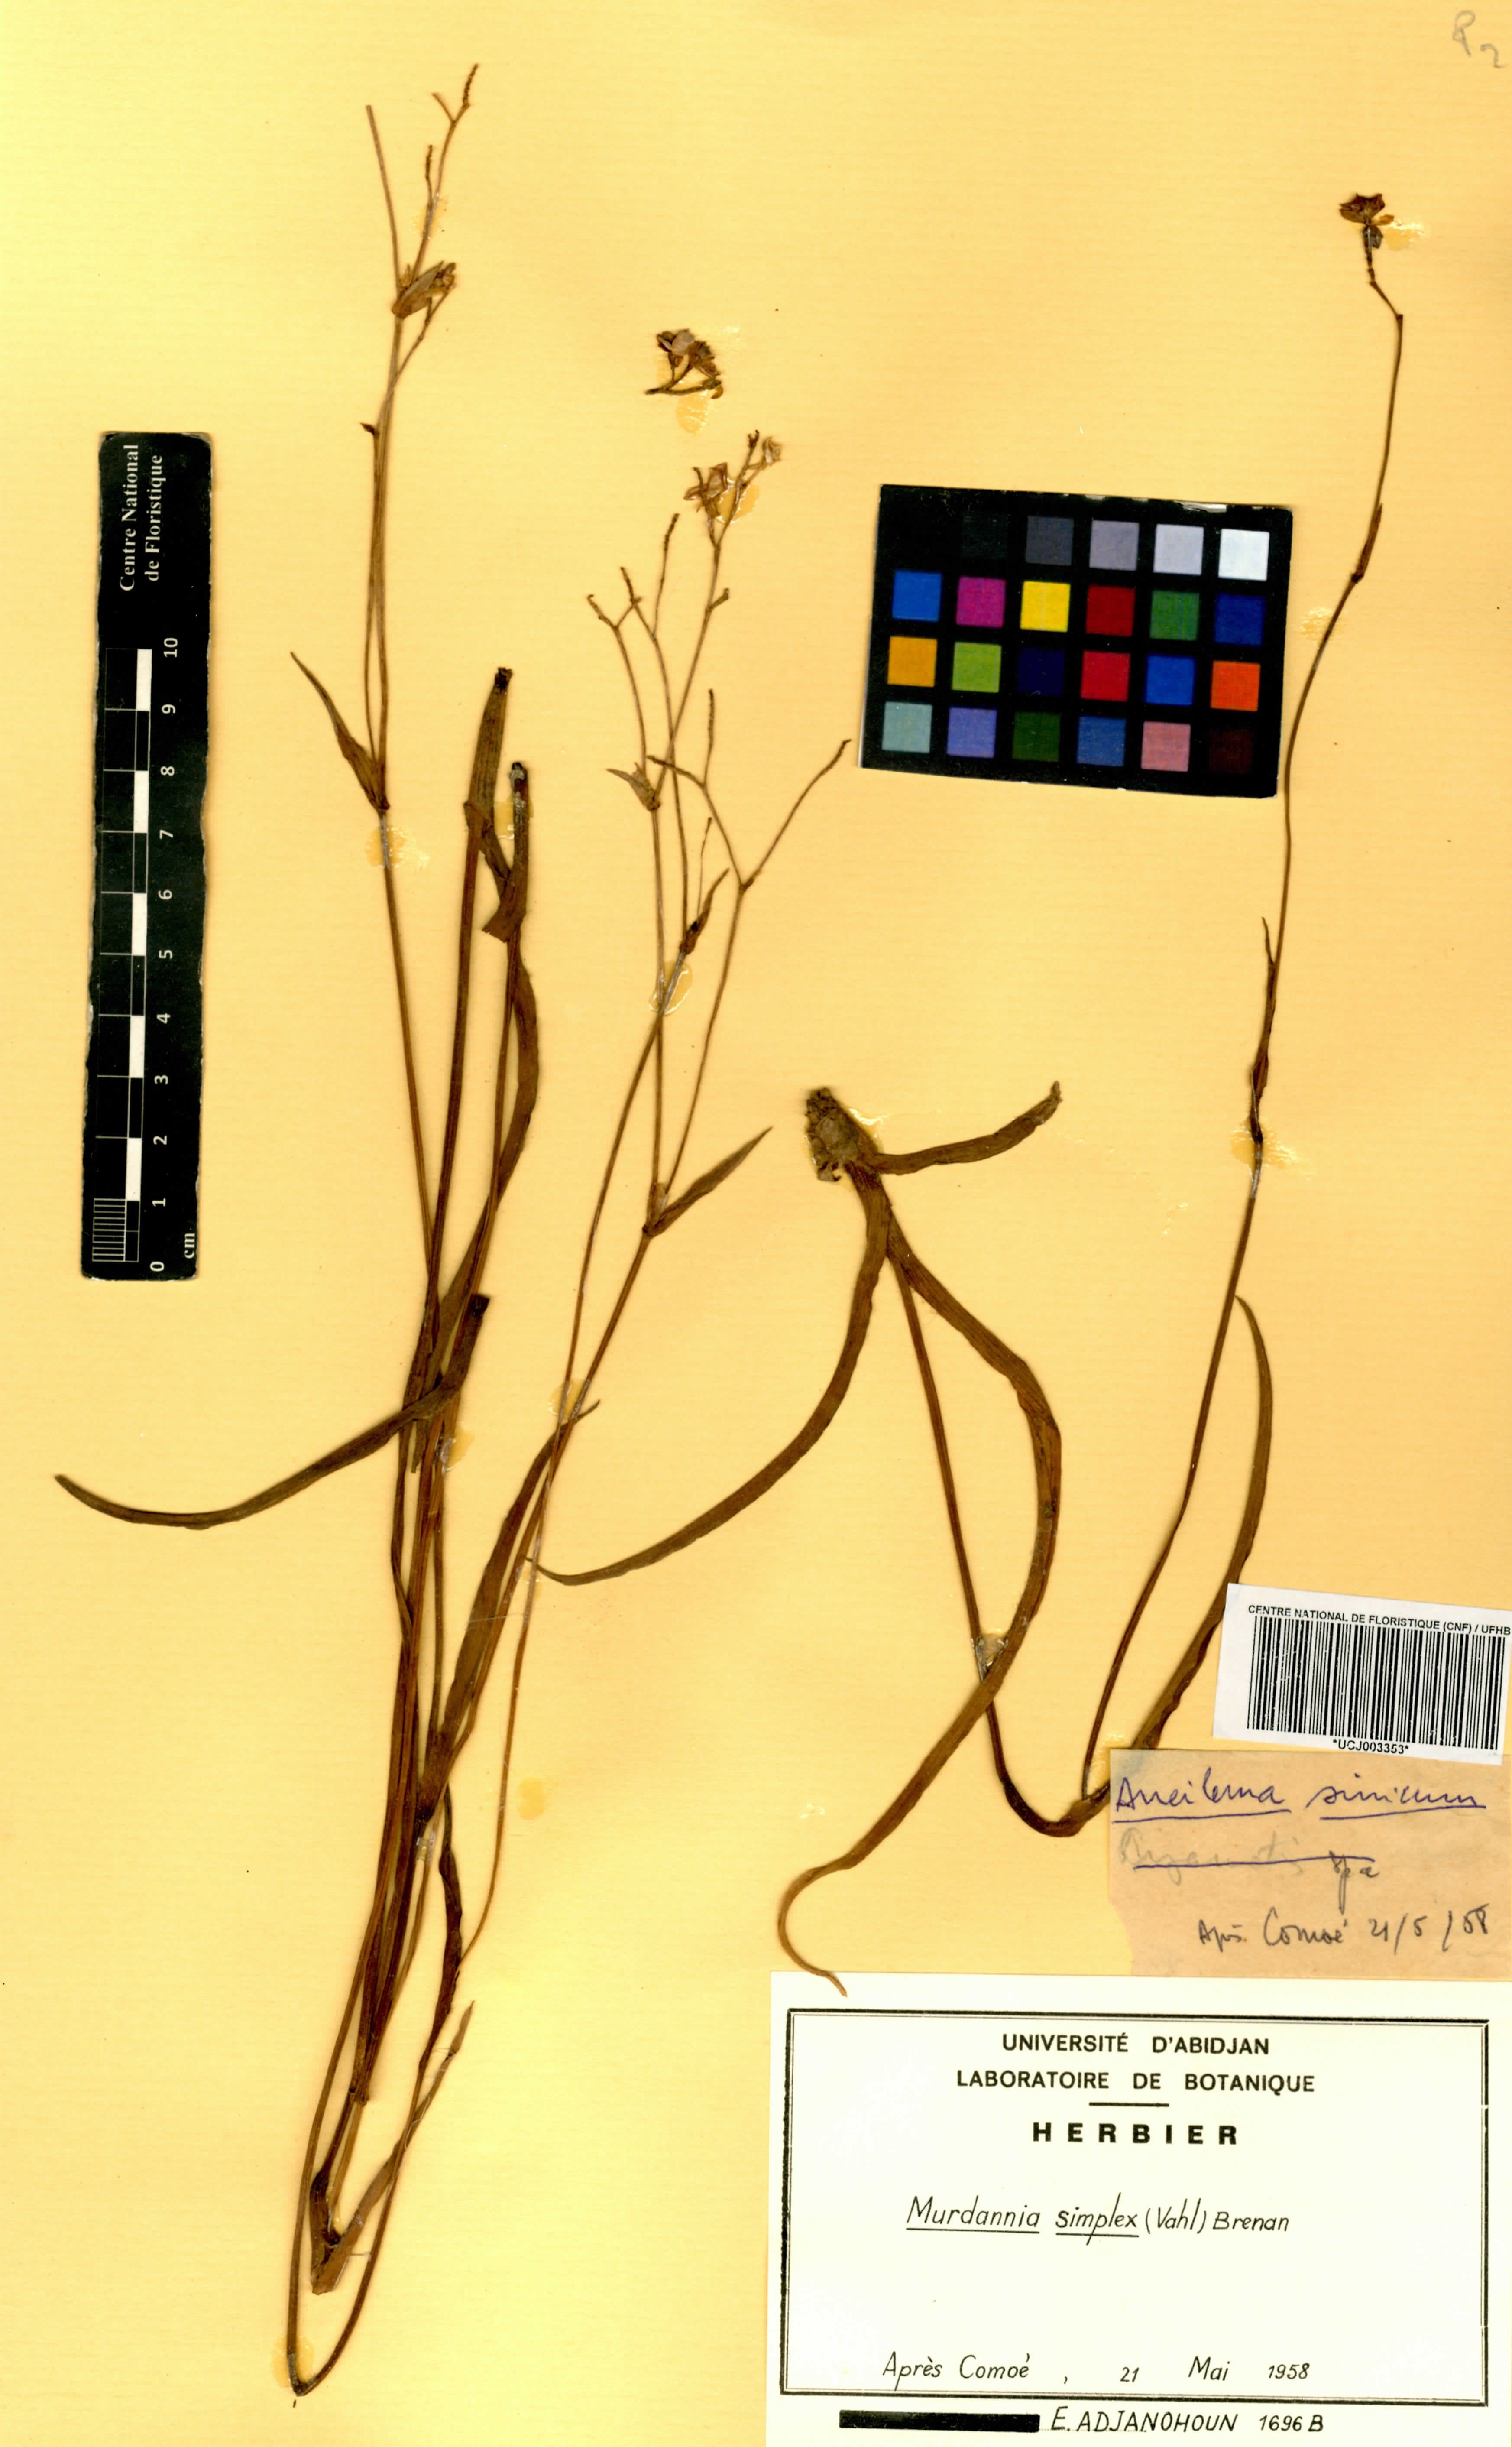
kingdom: Plantae
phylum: Tracheophyta
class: Liliopsida
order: Commelinales
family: Commelinaceae
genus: Murdannia
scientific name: Murdannia simplex
